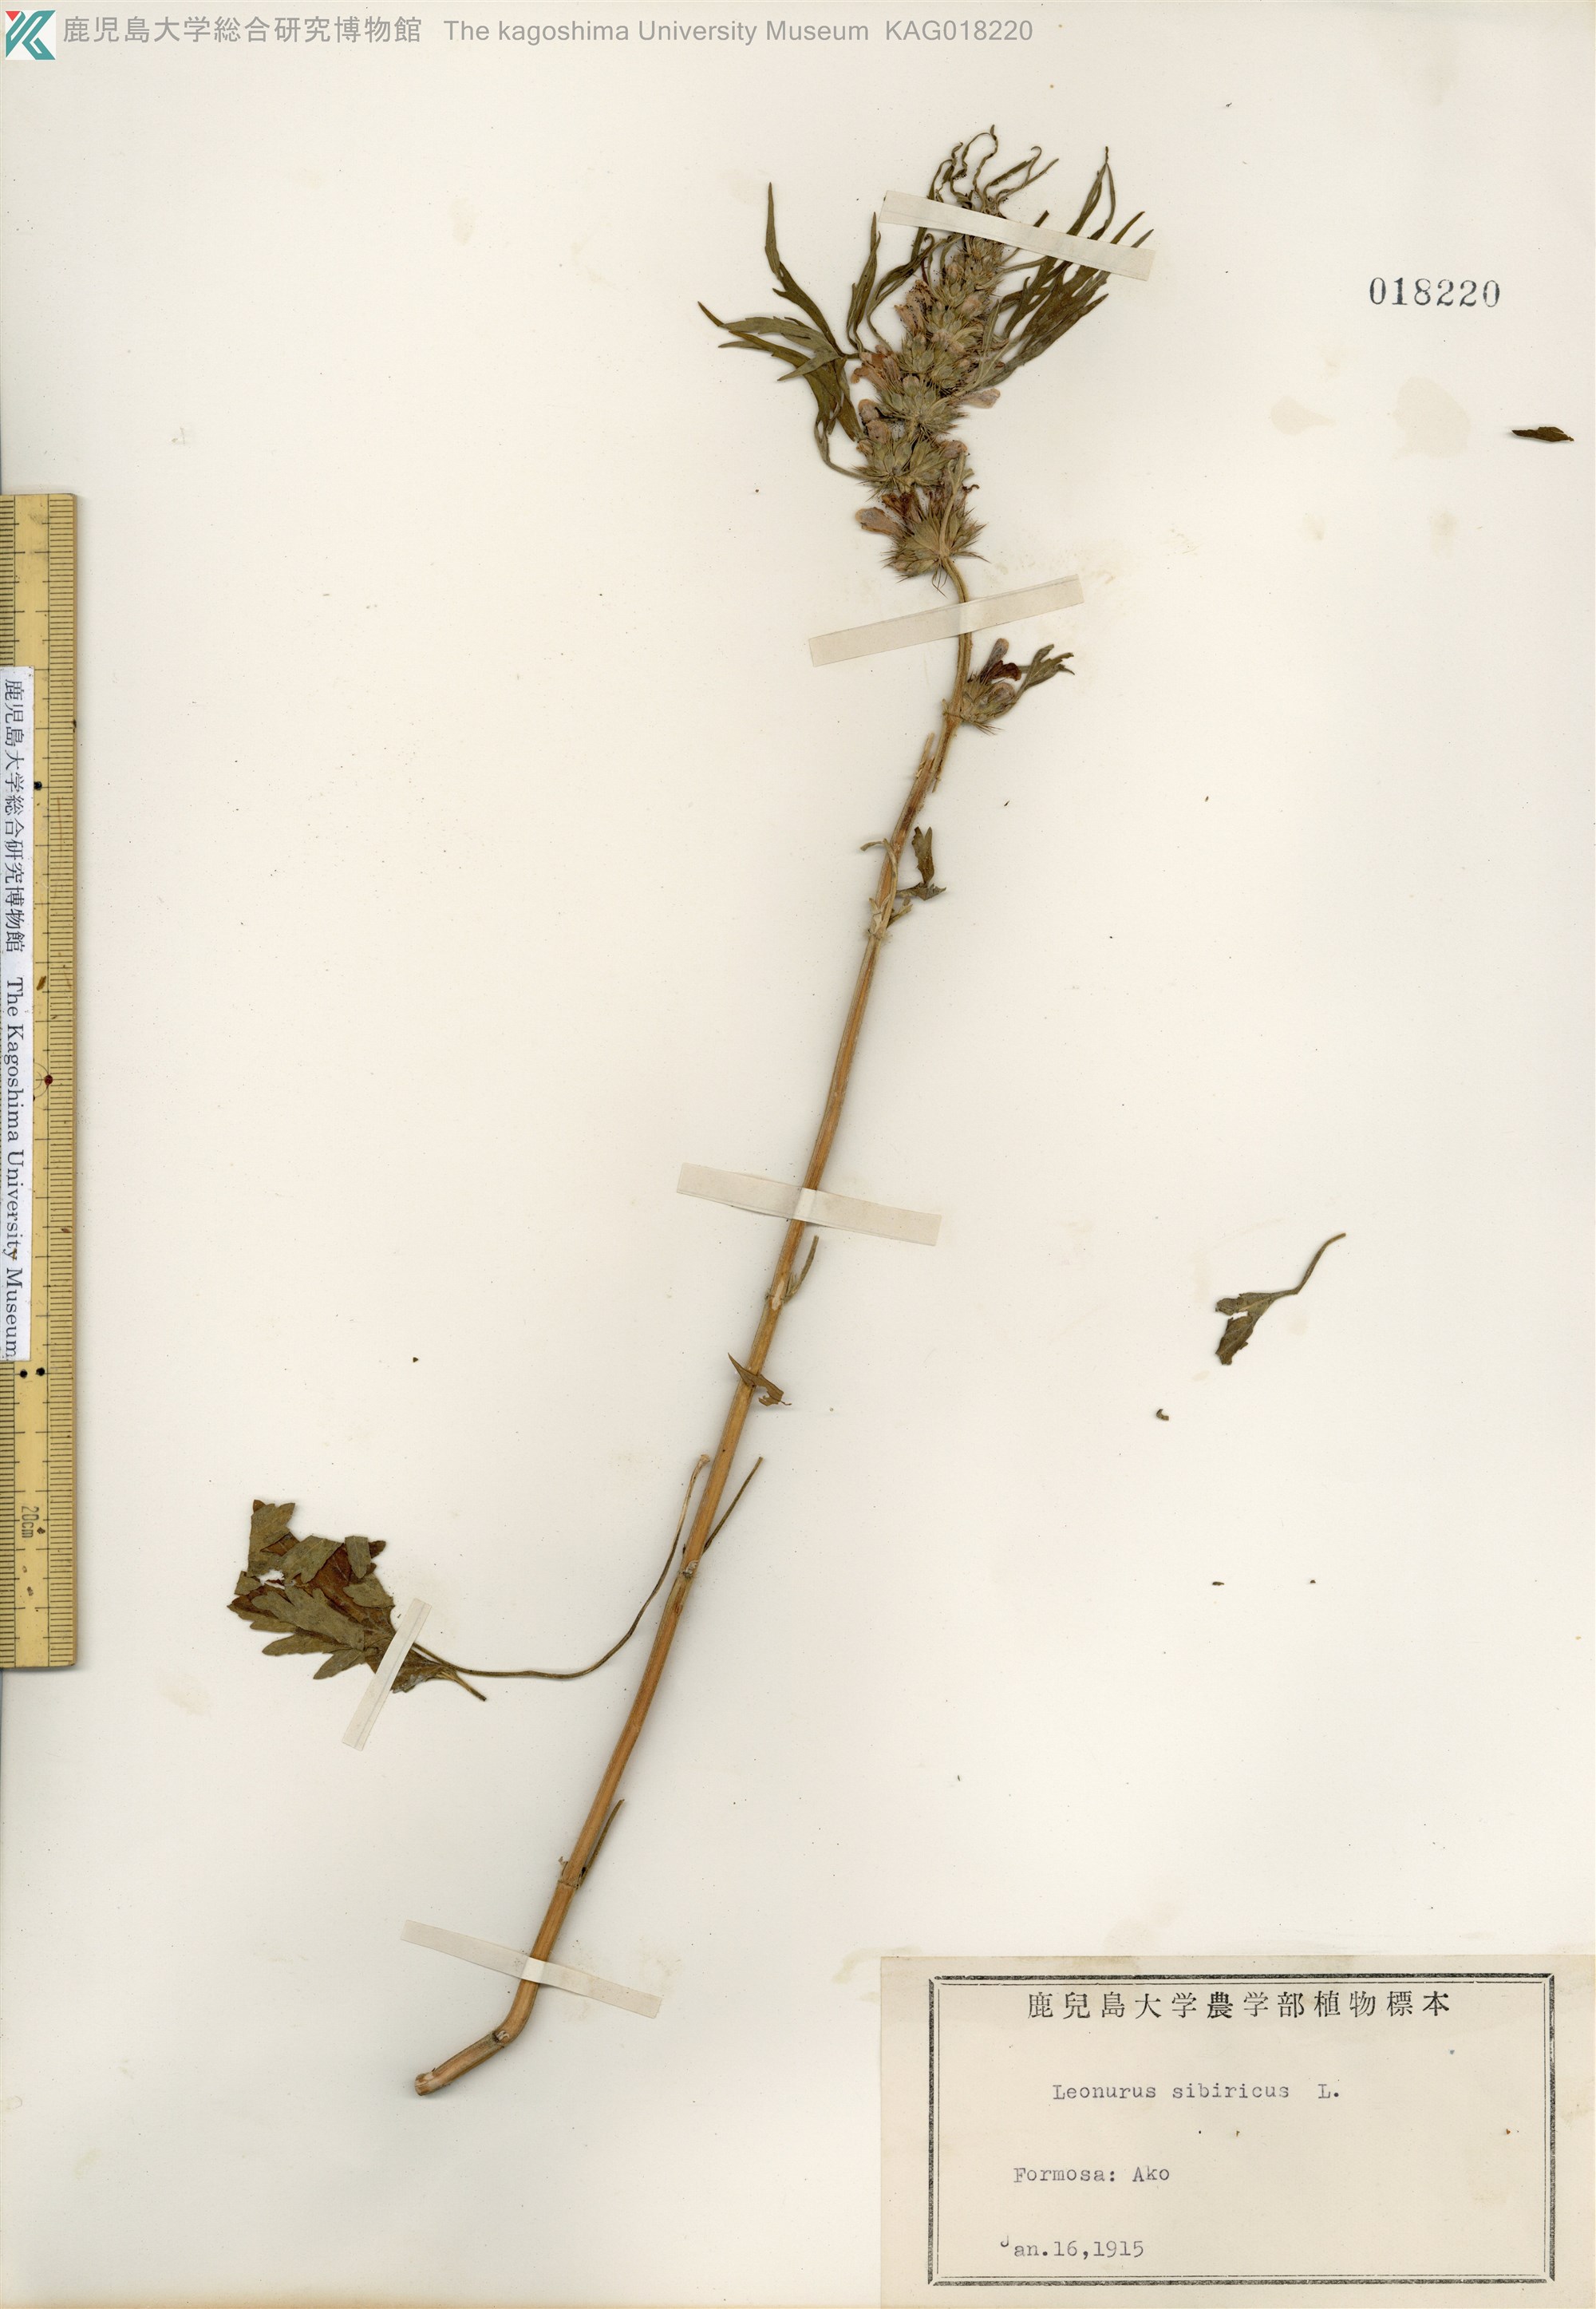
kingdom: Plantae
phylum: Tracheophyta
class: Magnoliopsida
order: Lamiales
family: Lamiaceae
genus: Leonurus
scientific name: Leonurus japonicus
